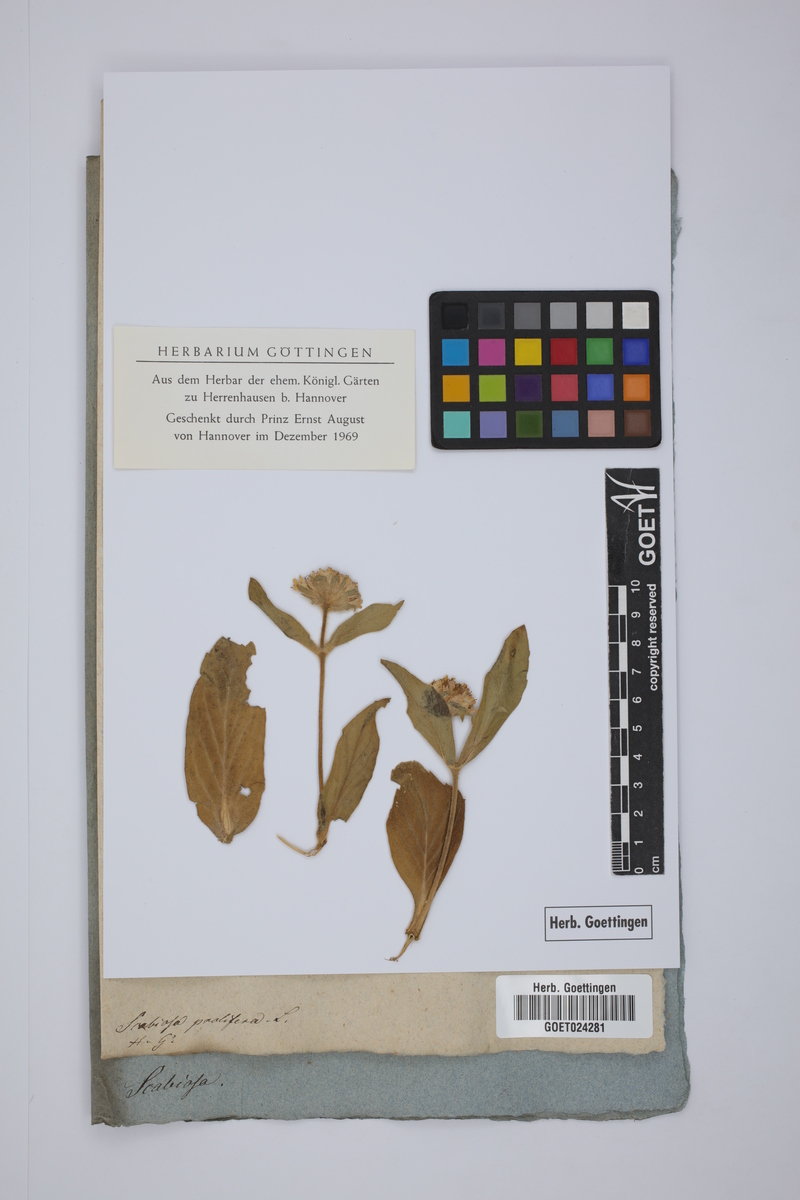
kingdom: Plantae
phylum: Tracheophyta
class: Magnoliopsida
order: Dipsacales
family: Caprifoliaceae
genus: Lomelosia
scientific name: Lomelosia prolifera
